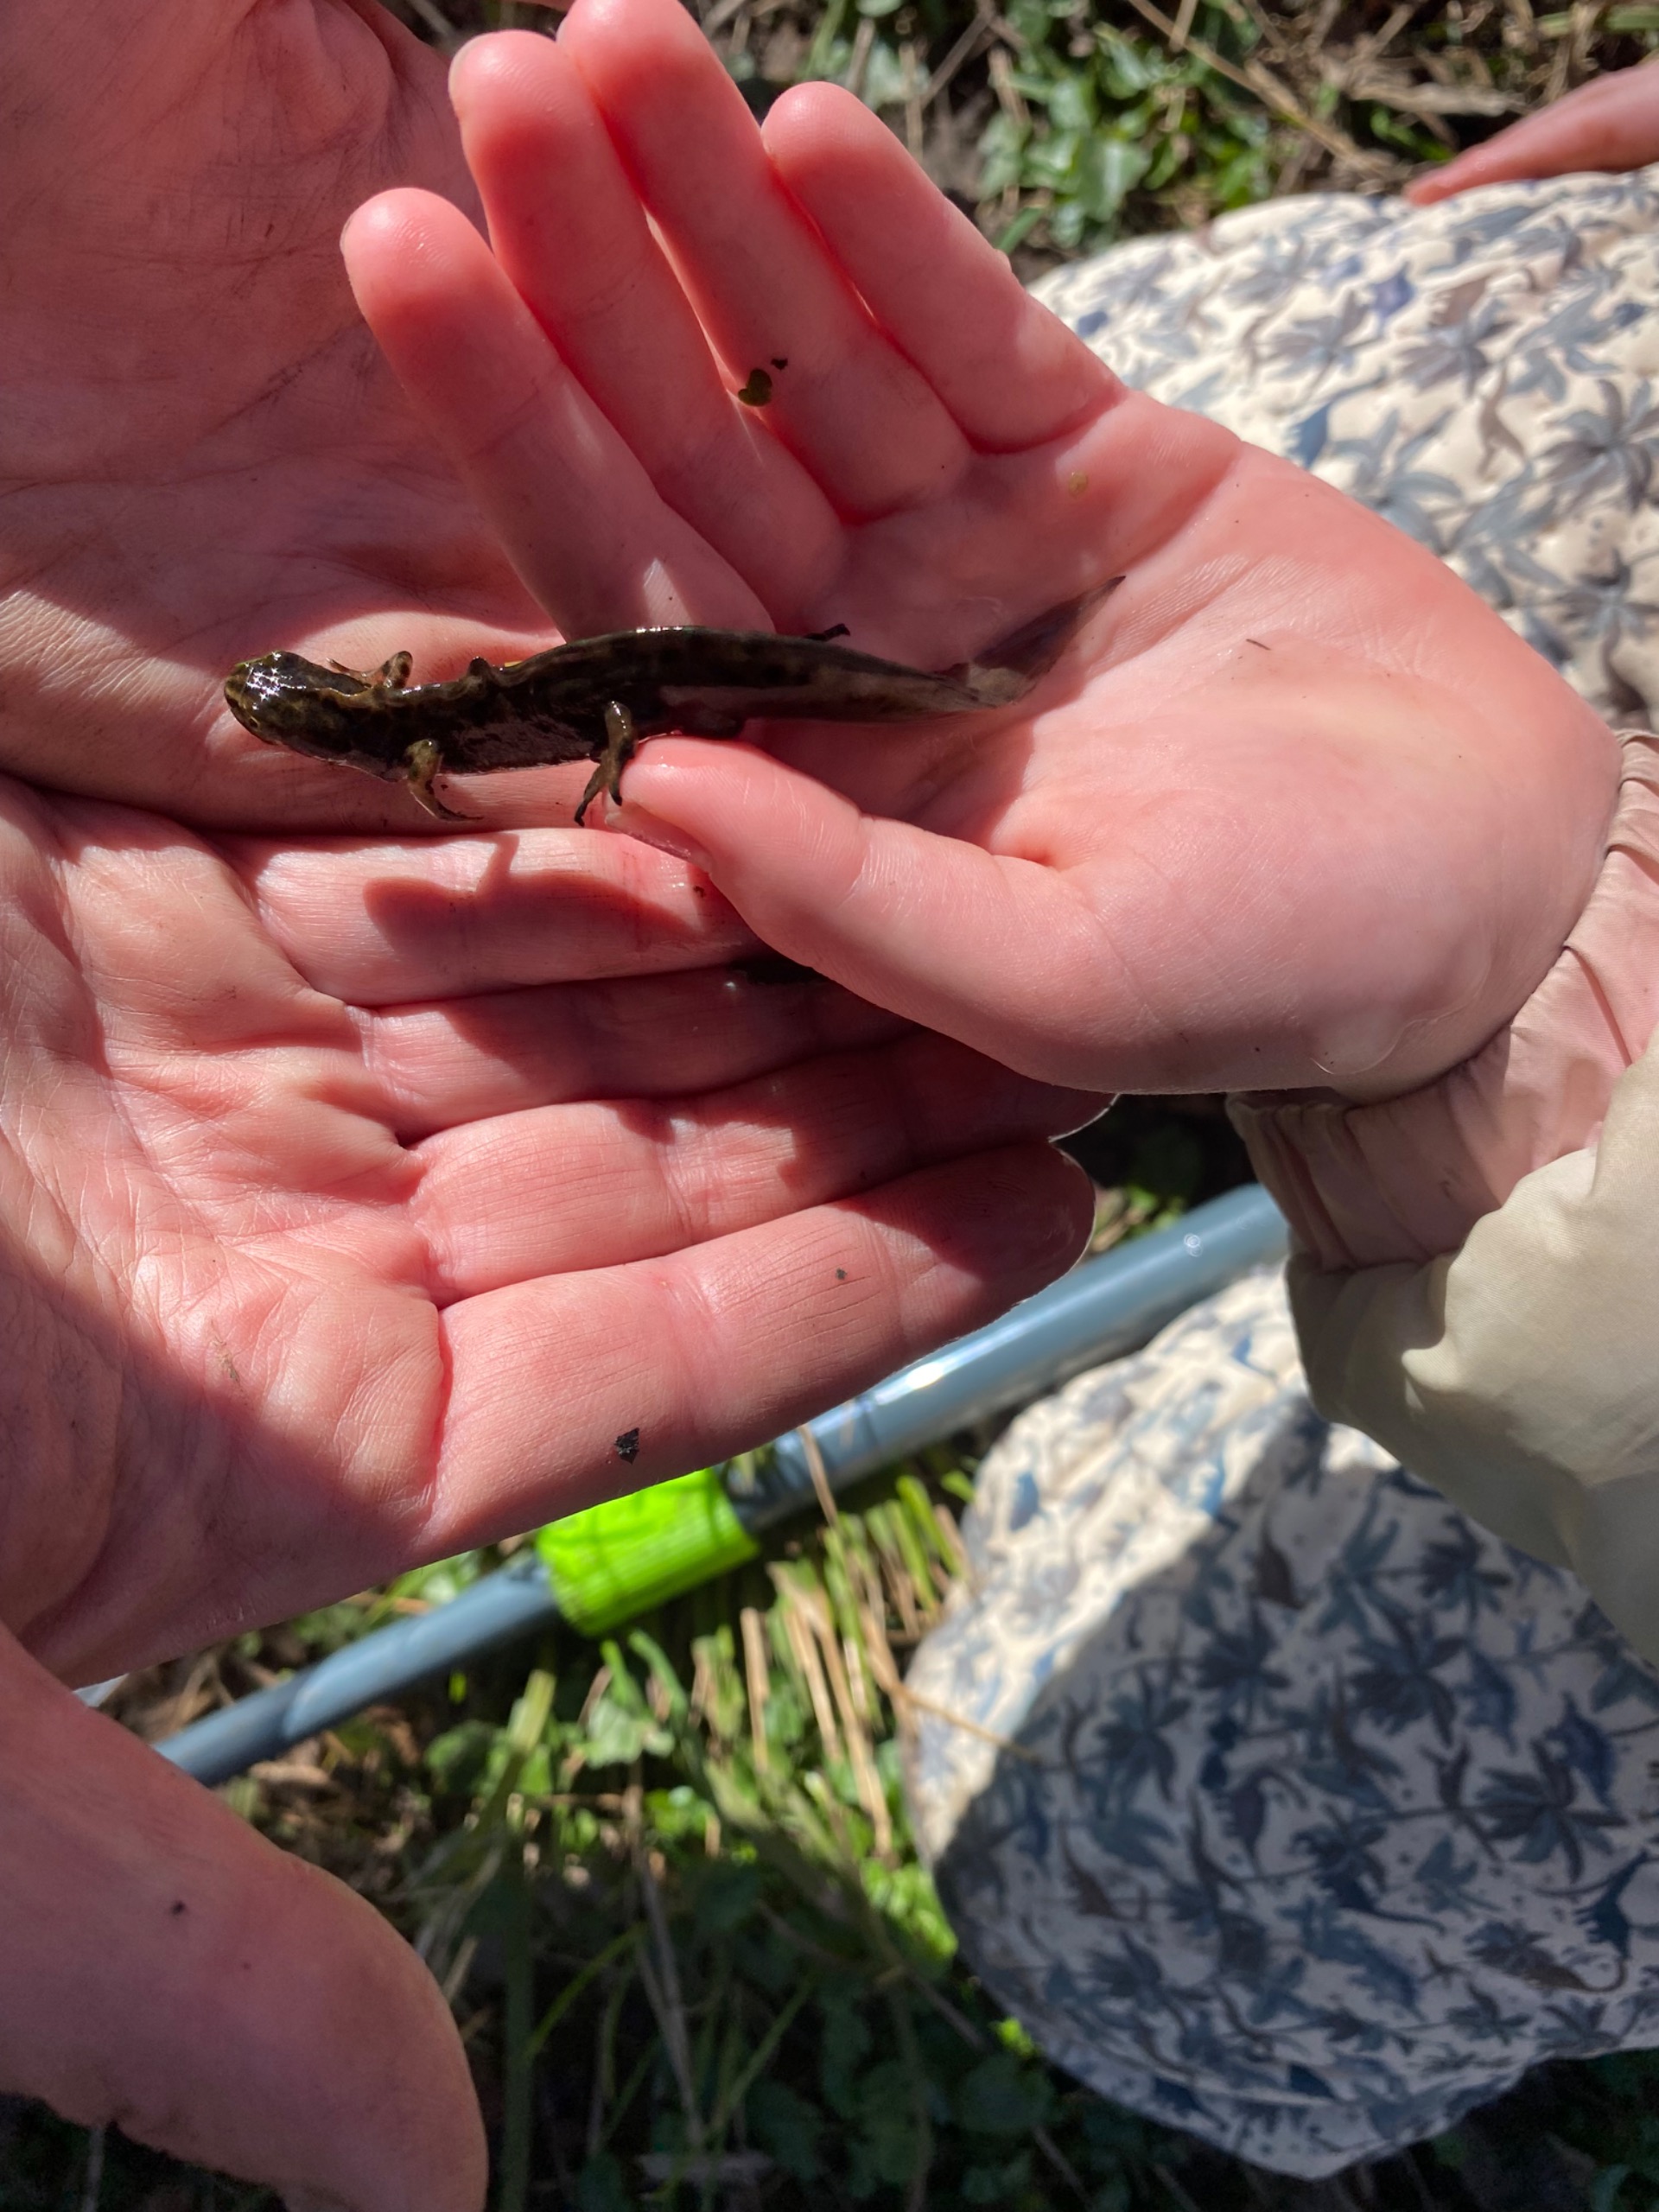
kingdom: Animalia
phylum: Chordata
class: Amphibia
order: Caudata
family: Salamandridae
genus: Lissotriton
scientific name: Lissotriton vulgaris
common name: Lille vandsalamander
